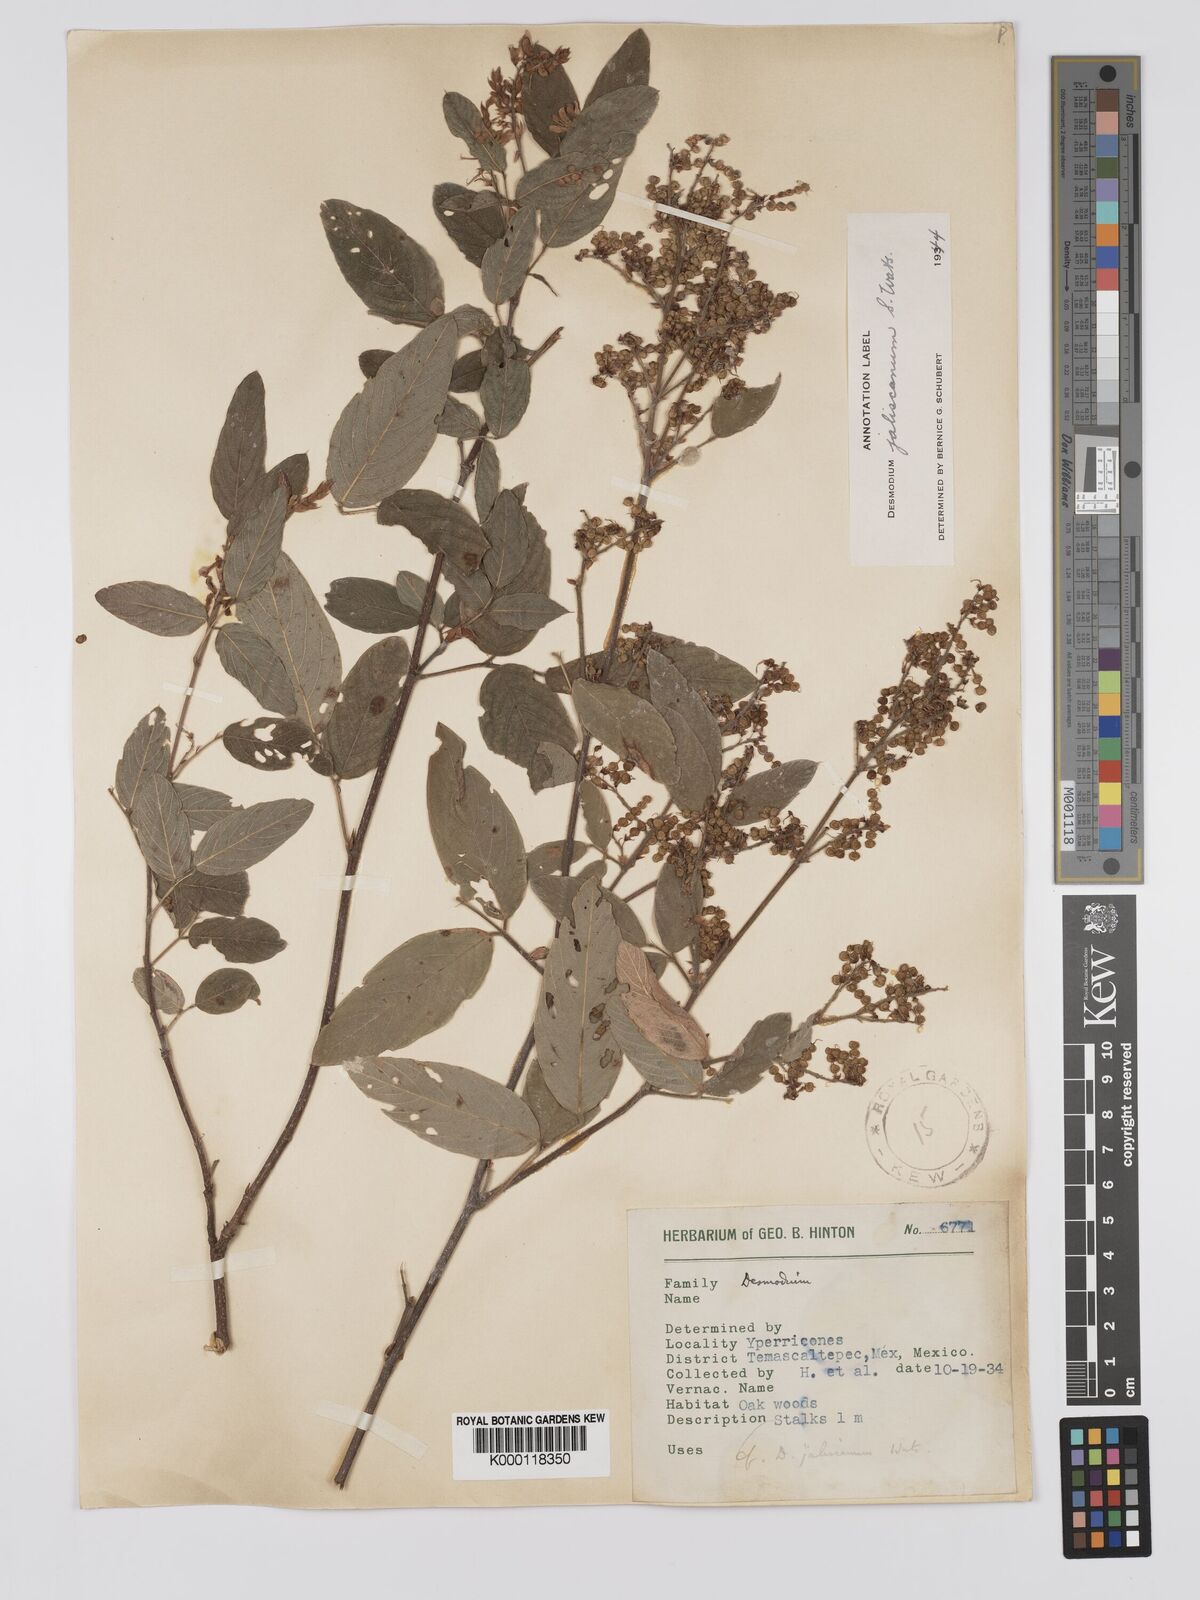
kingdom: Plantae
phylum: Tracheophyta
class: Magnoliopsida
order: Fabales
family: Fabaceae
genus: Desmodium
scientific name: Desmodium jaliscanum
